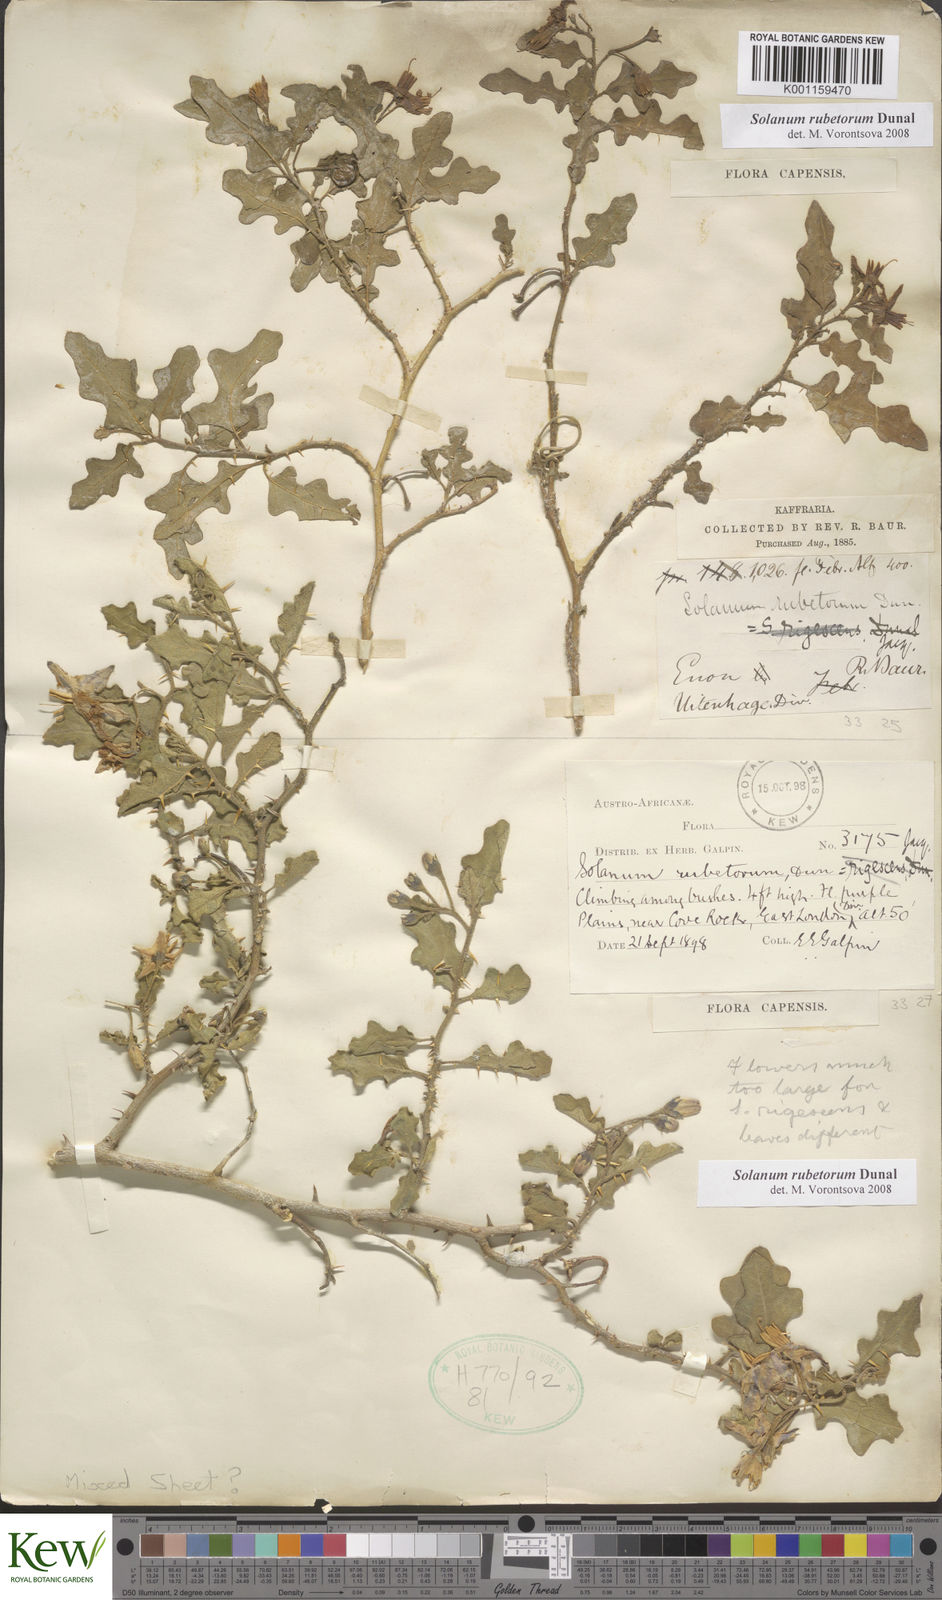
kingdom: Plantae
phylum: Tracheophyta
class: Magnoliopsida
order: Solanales
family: Solanaceae
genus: Solanum
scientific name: Solanum rubetorum
